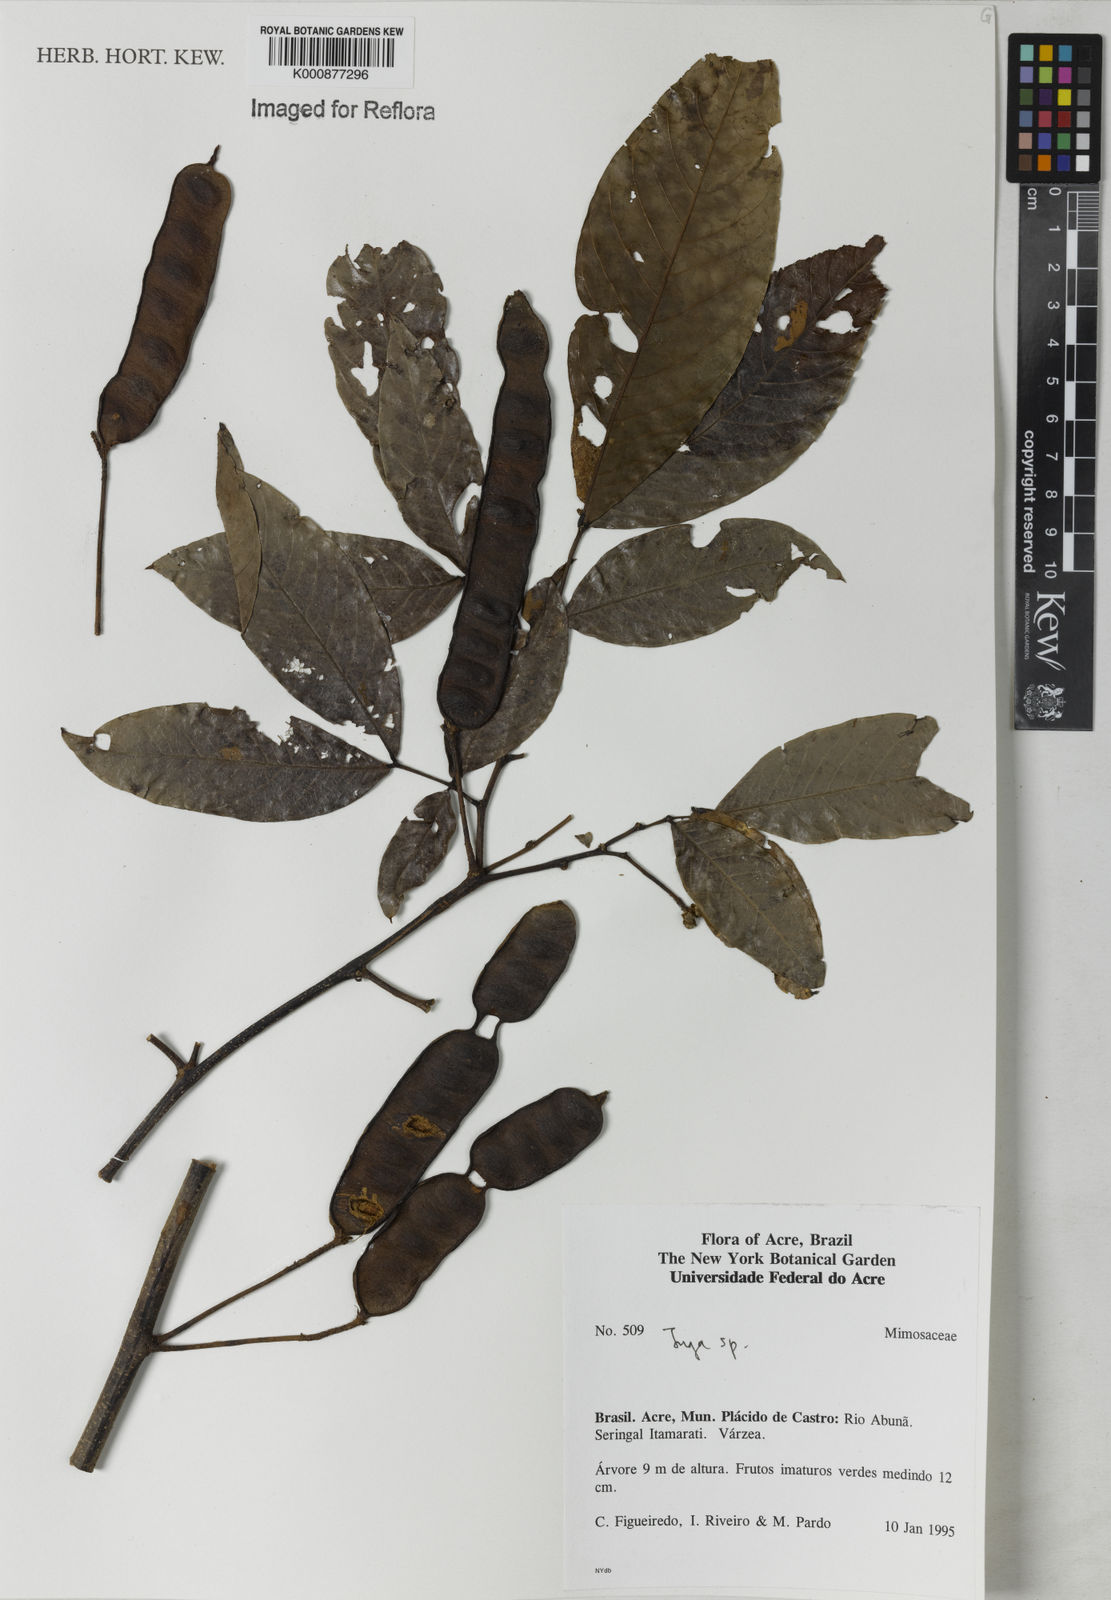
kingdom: Plantae
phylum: Tracheophyta
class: Magnoliopsida
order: Fabales
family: Fabaceae
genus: Inga
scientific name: Inga
